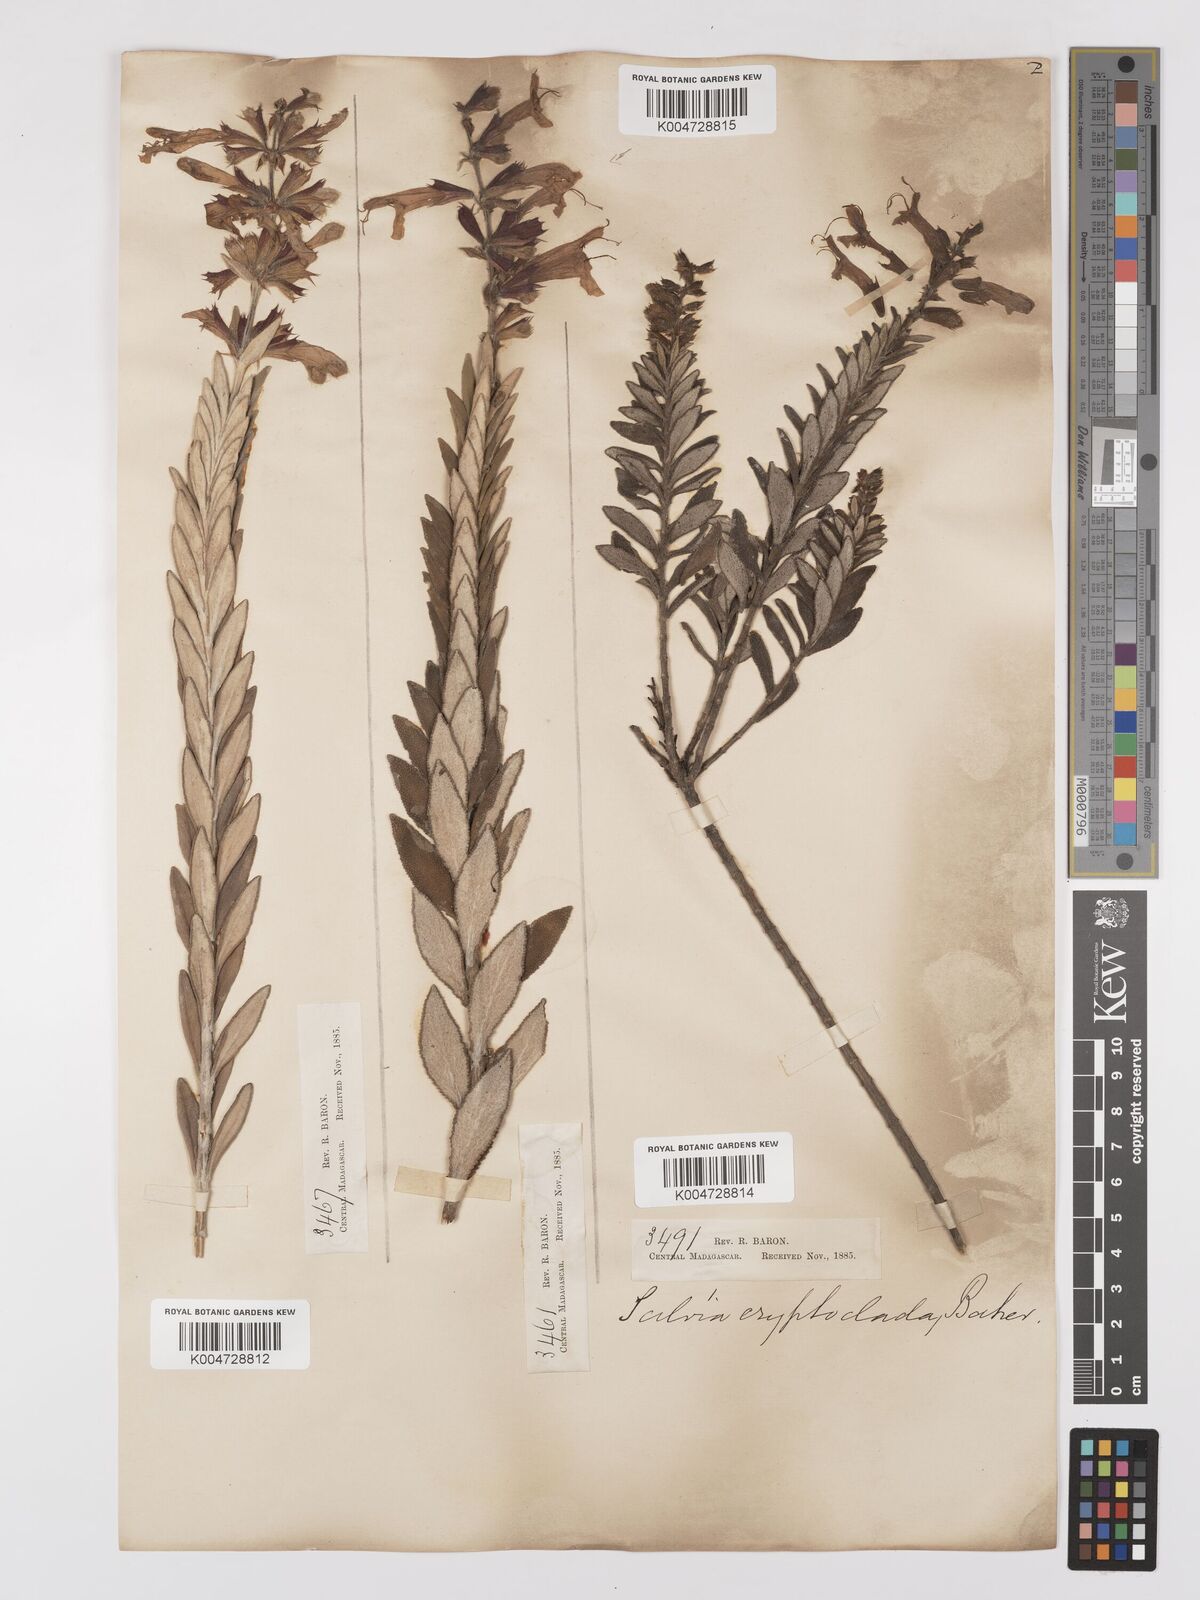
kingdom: Plantae
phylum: Tracheophyta
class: Magnoliopsida
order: Lamiales
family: Lamiaceae
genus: Salvia
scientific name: Salvia cryptoclada
